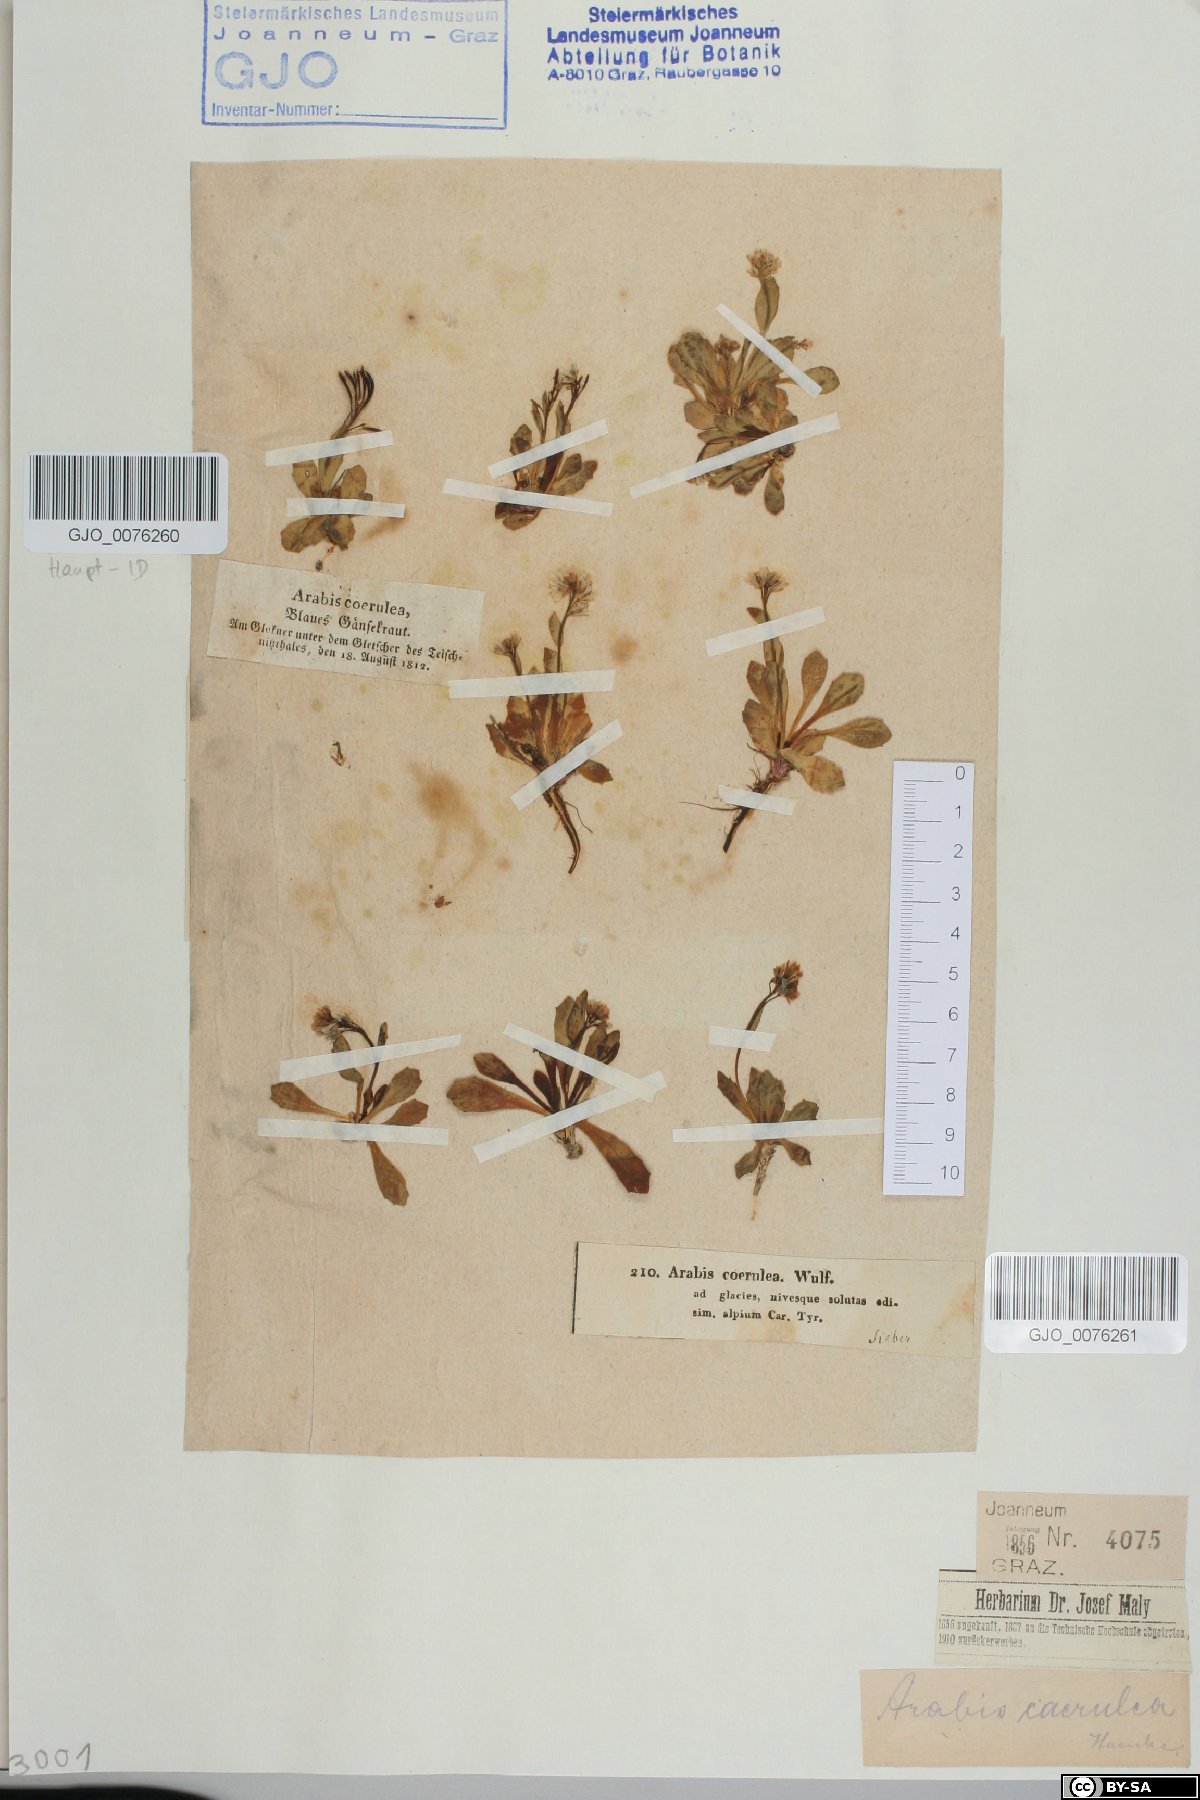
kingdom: Plantae
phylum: Tracheophyta
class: Magnoliopsida
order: Brassicales
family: Brassicaceae
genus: Arabis
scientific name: Arabis caerulea
